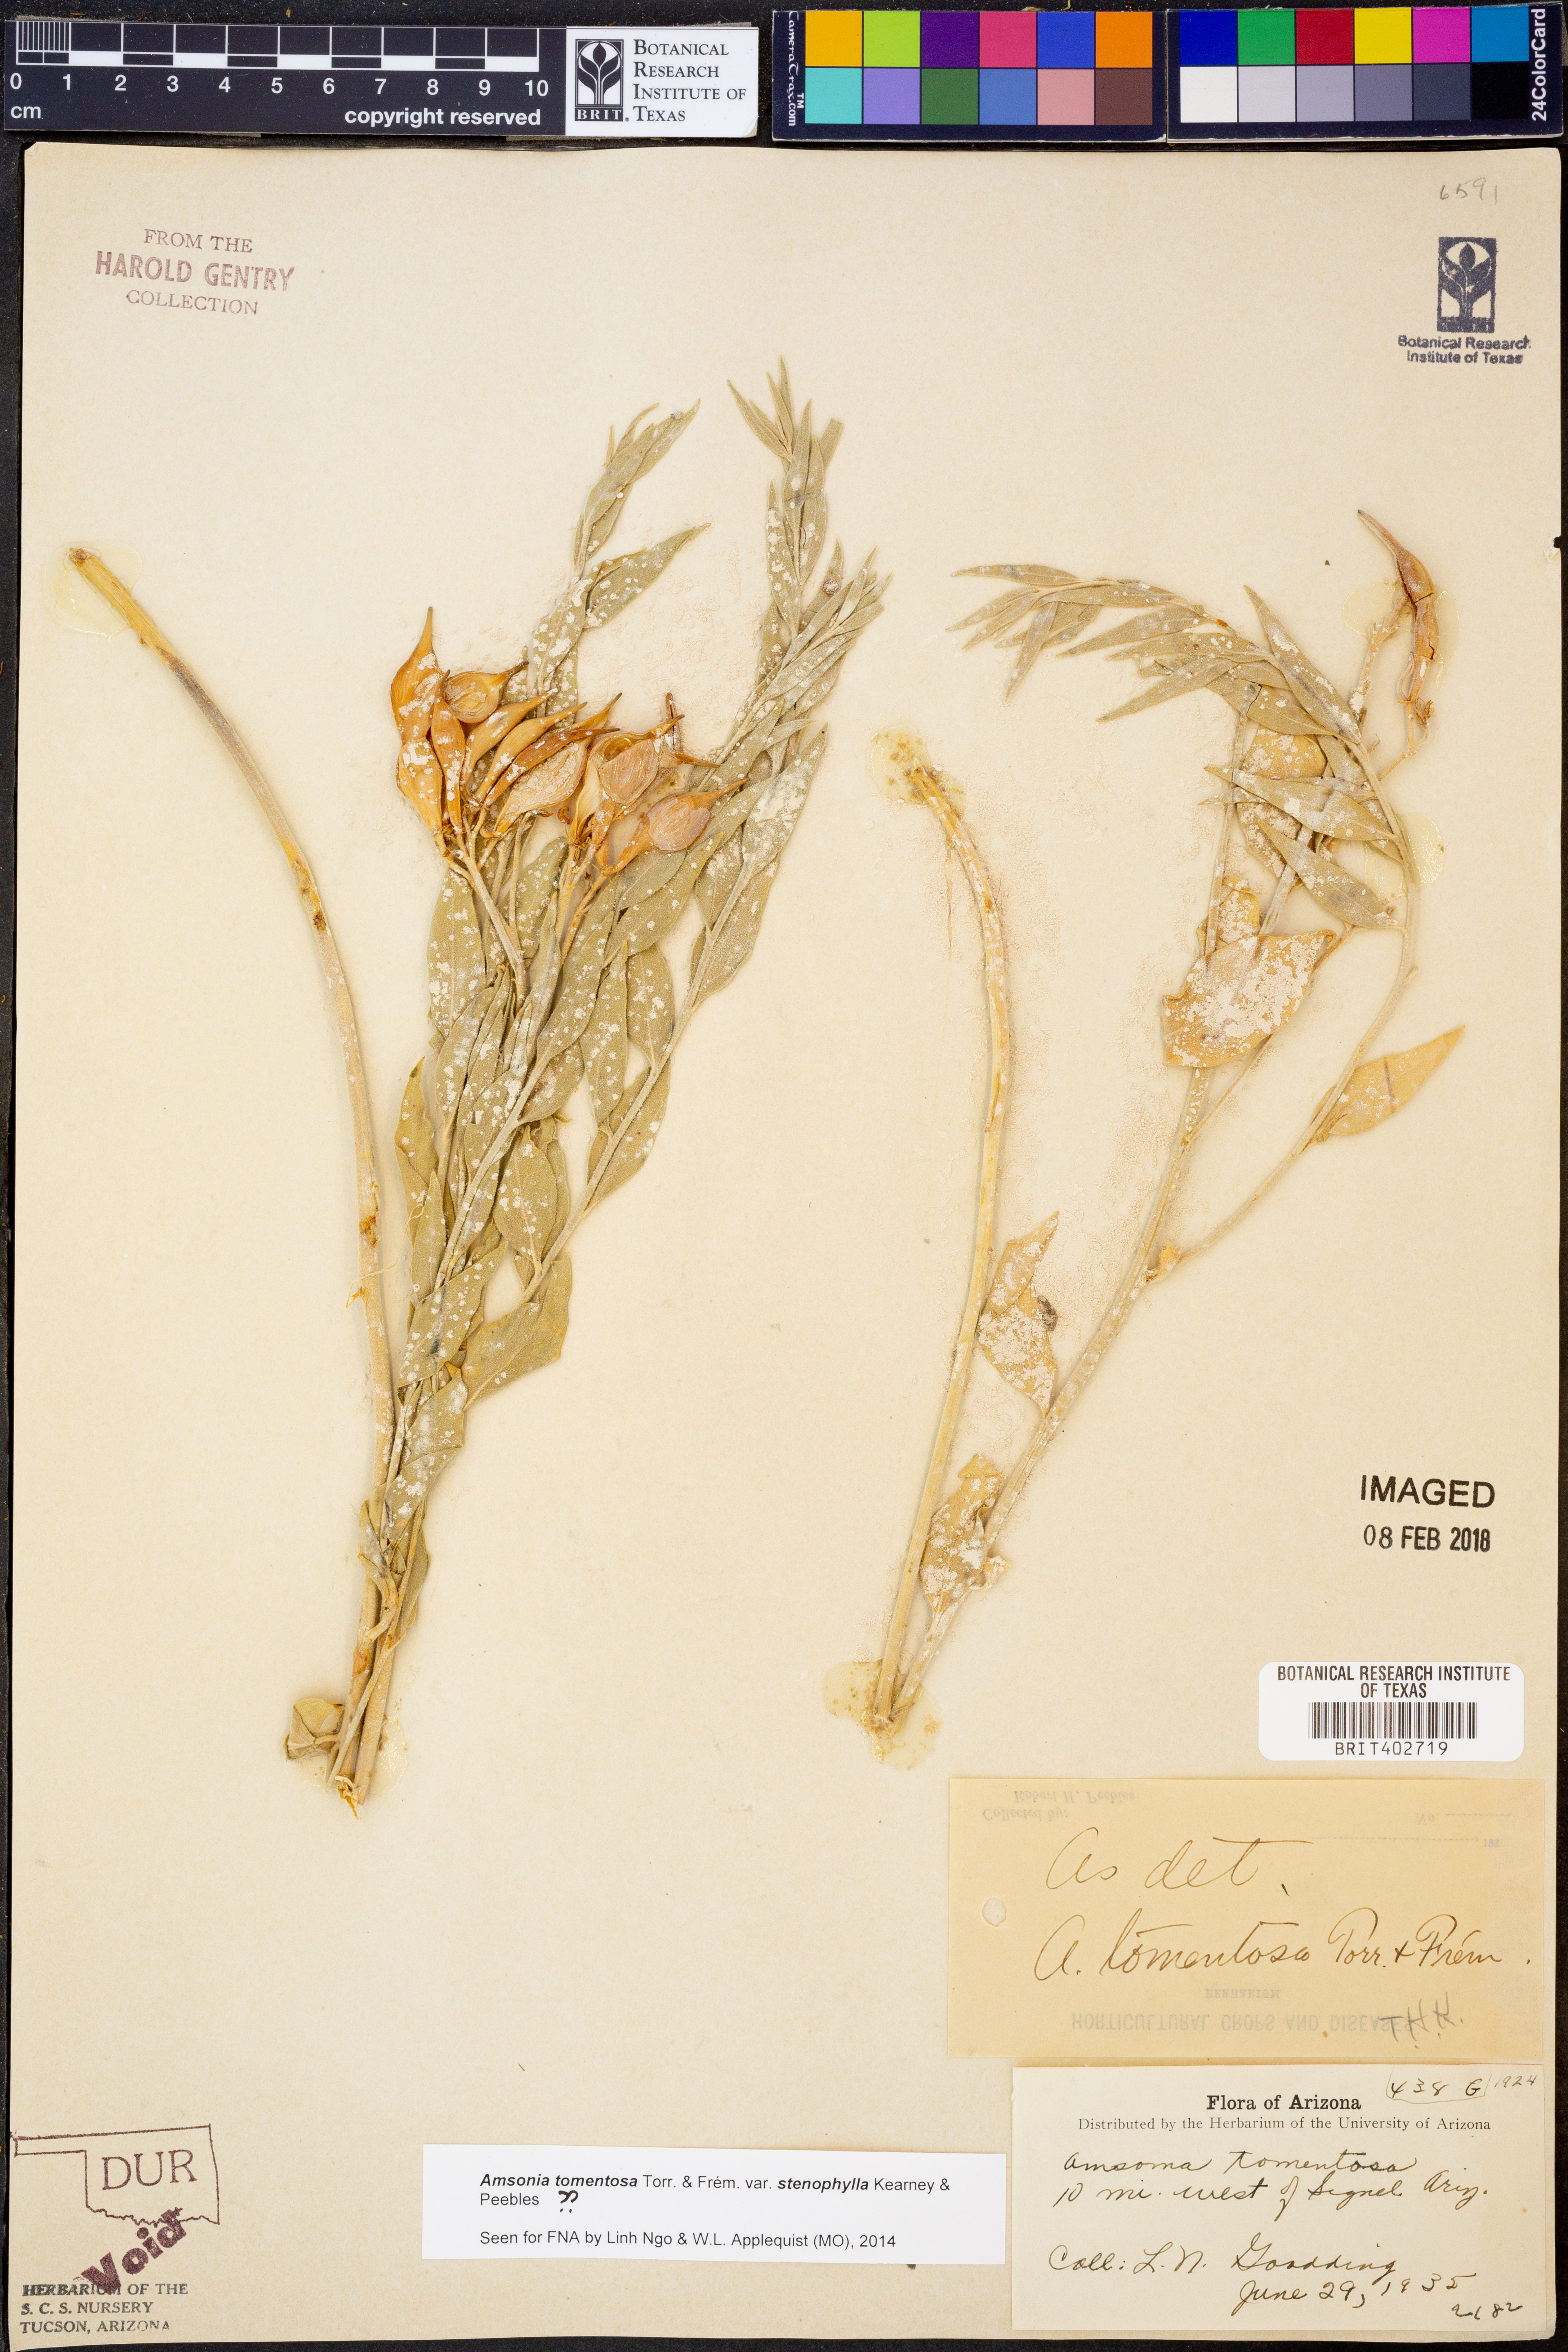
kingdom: Plantae
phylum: Tracheophyta
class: Magnoliopsida
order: Gentianales
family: Apocynaceae
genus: Amsonia
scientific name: Amsonia tomentosa
